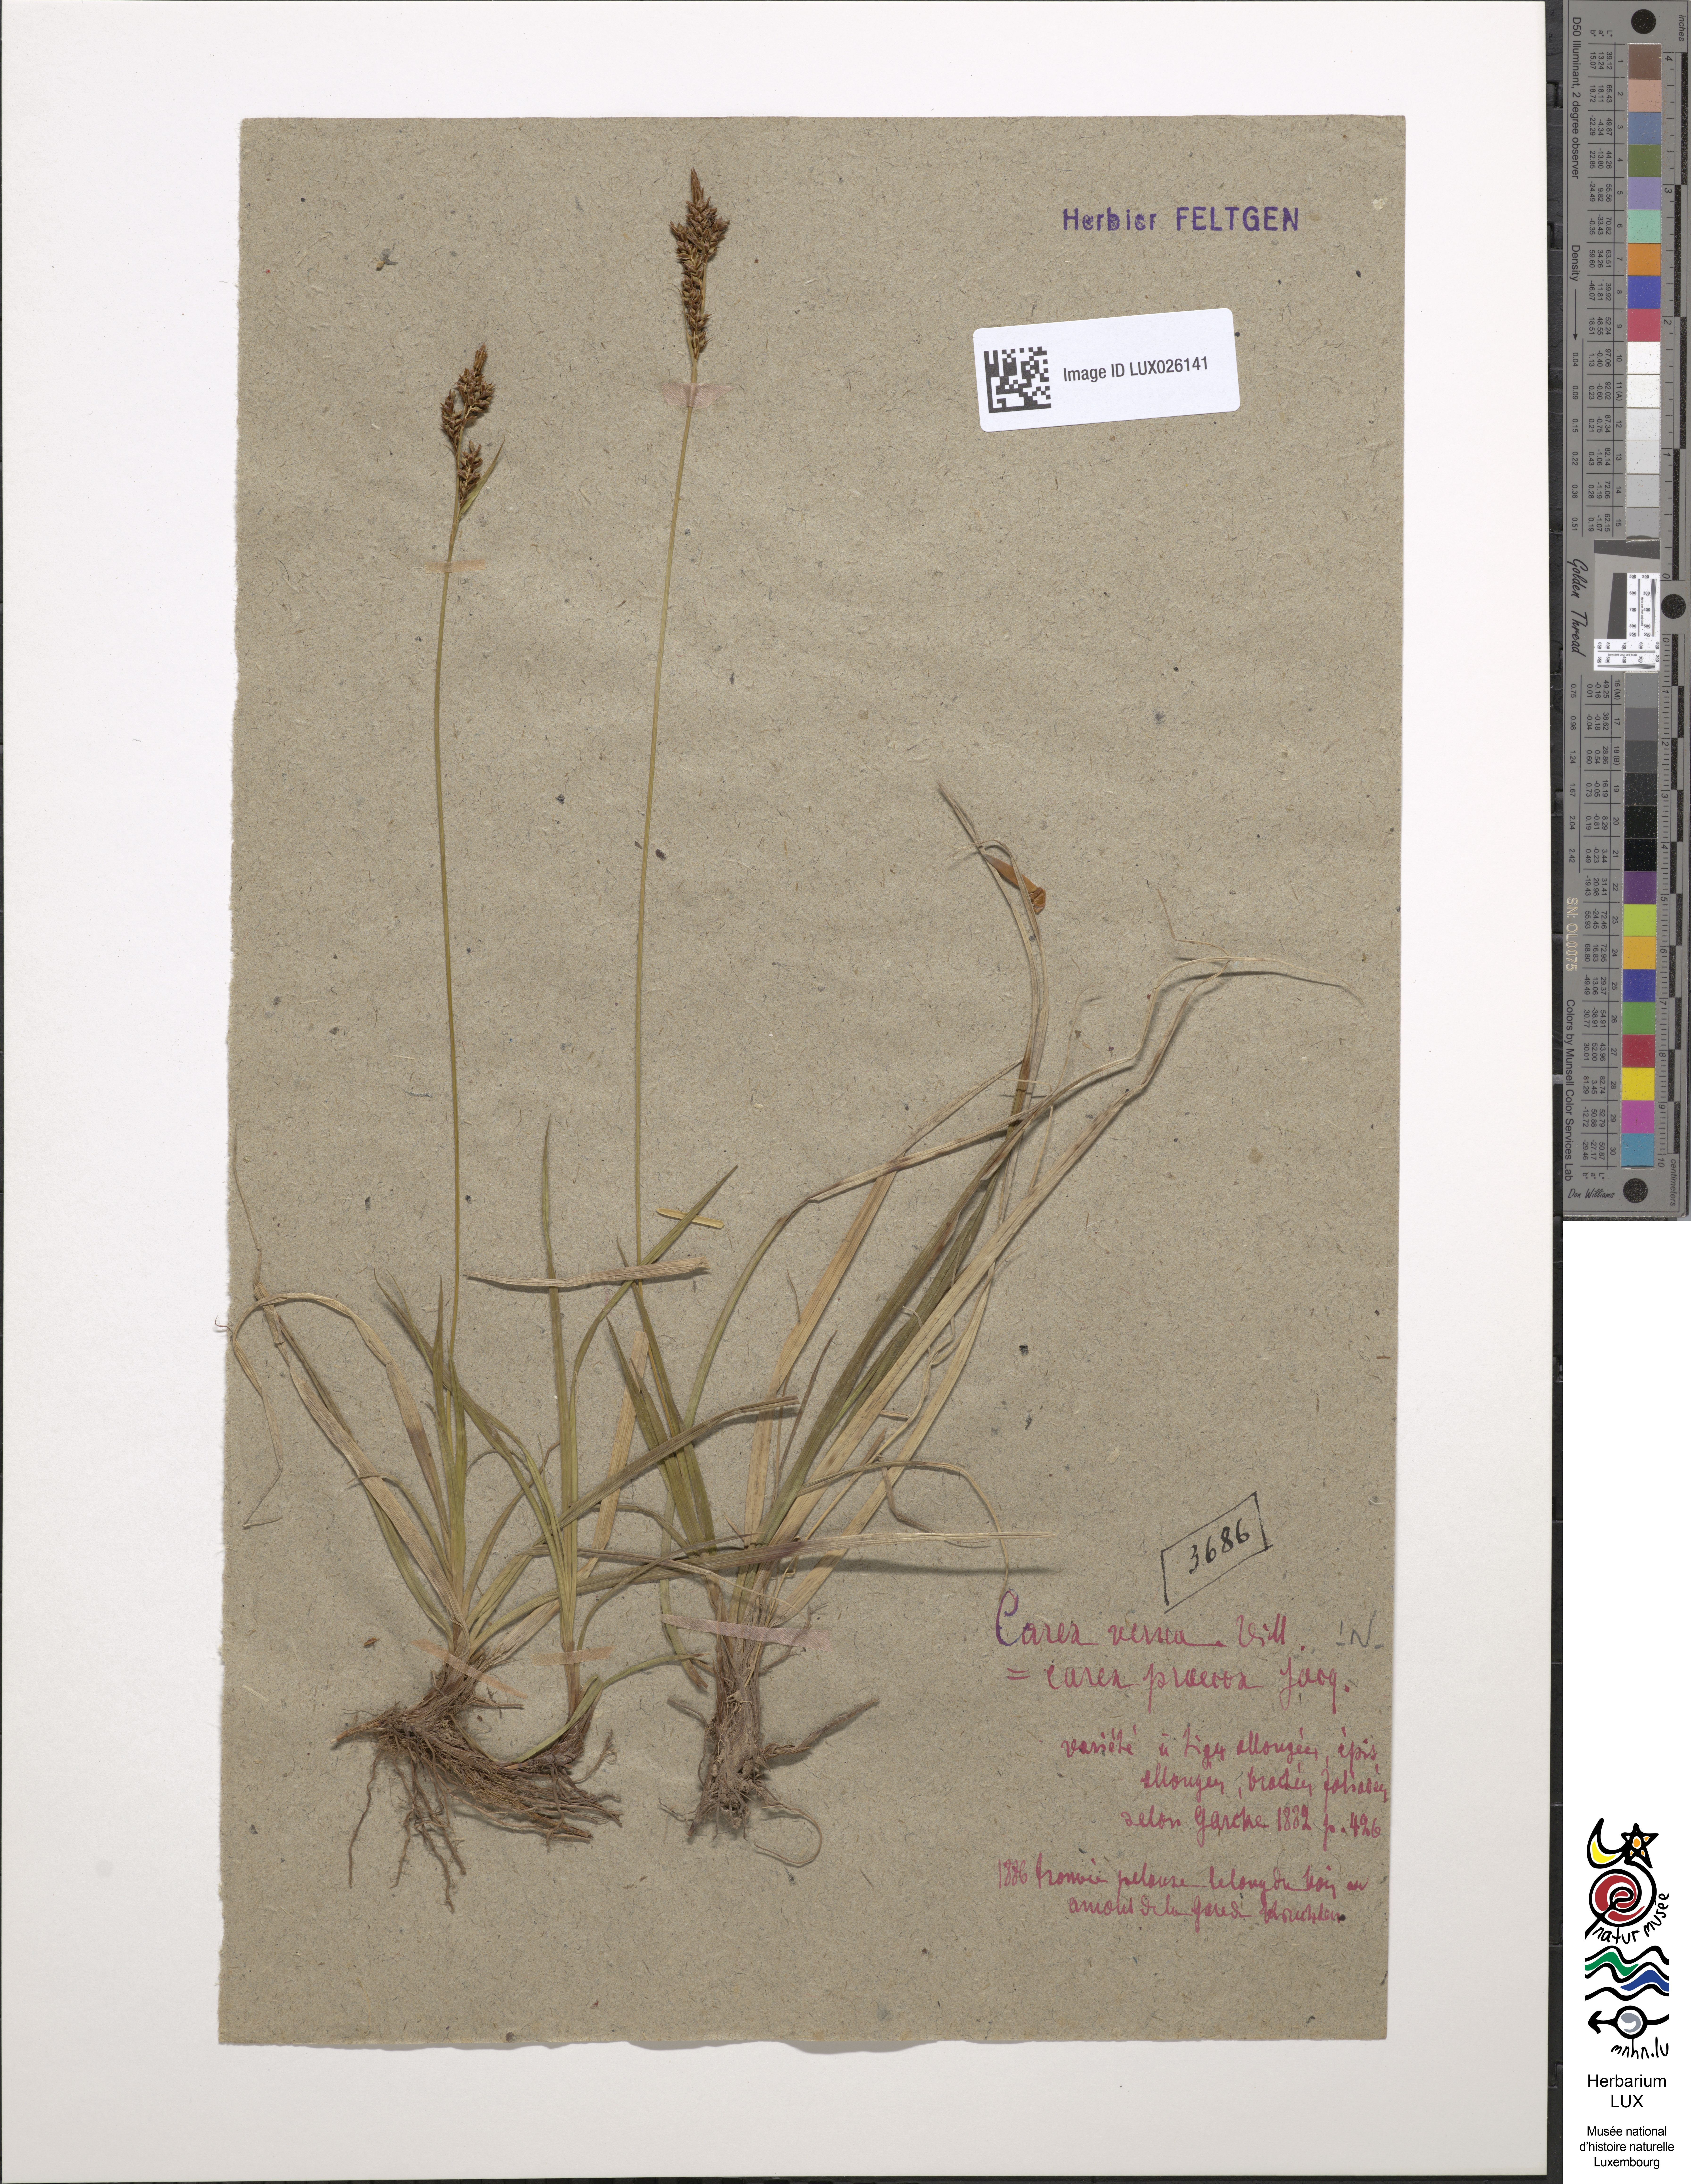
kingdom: Plantae
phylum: Tracheophyta
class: Liliopsida
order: Poales
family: Cyperaceae
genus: Carex
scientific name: Carex caryophyllea
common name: Spring sedge
